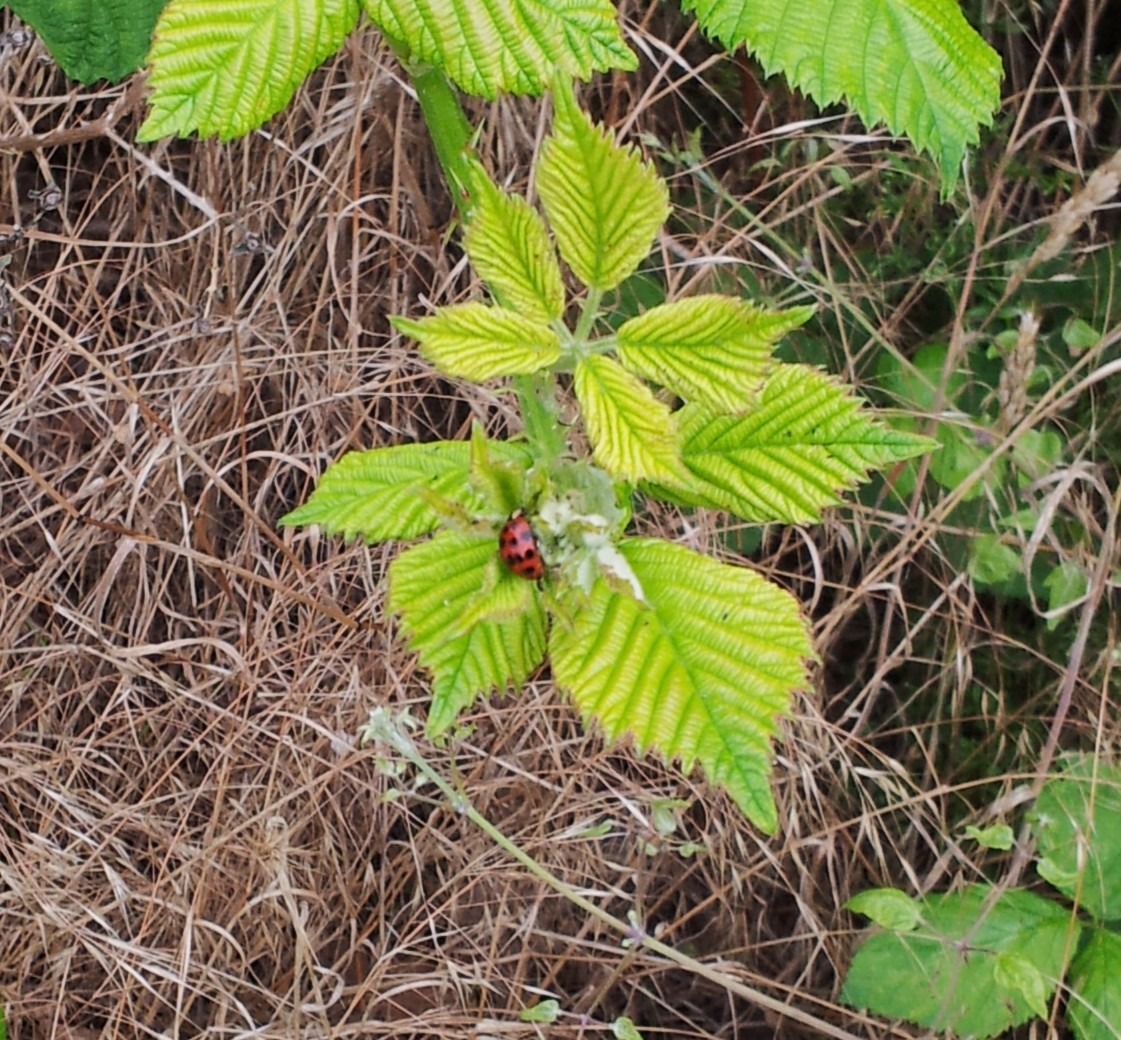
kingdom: Animalia
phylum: Arthropoda
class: Insecta
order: Coleoptera
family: Coccinellidae
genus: Harmonia
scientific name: Harmonia axyridis
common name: Harlekinmariehøne
